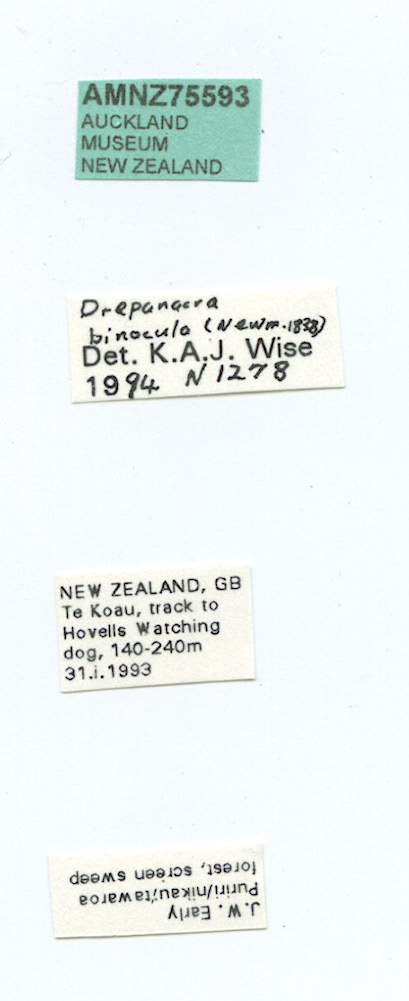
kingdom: Animalia
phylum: Arthropoda
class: Insecta
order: Neuroptera
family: Hemerobiidae
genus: Drepanacra
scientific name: Drepanacra binocula
